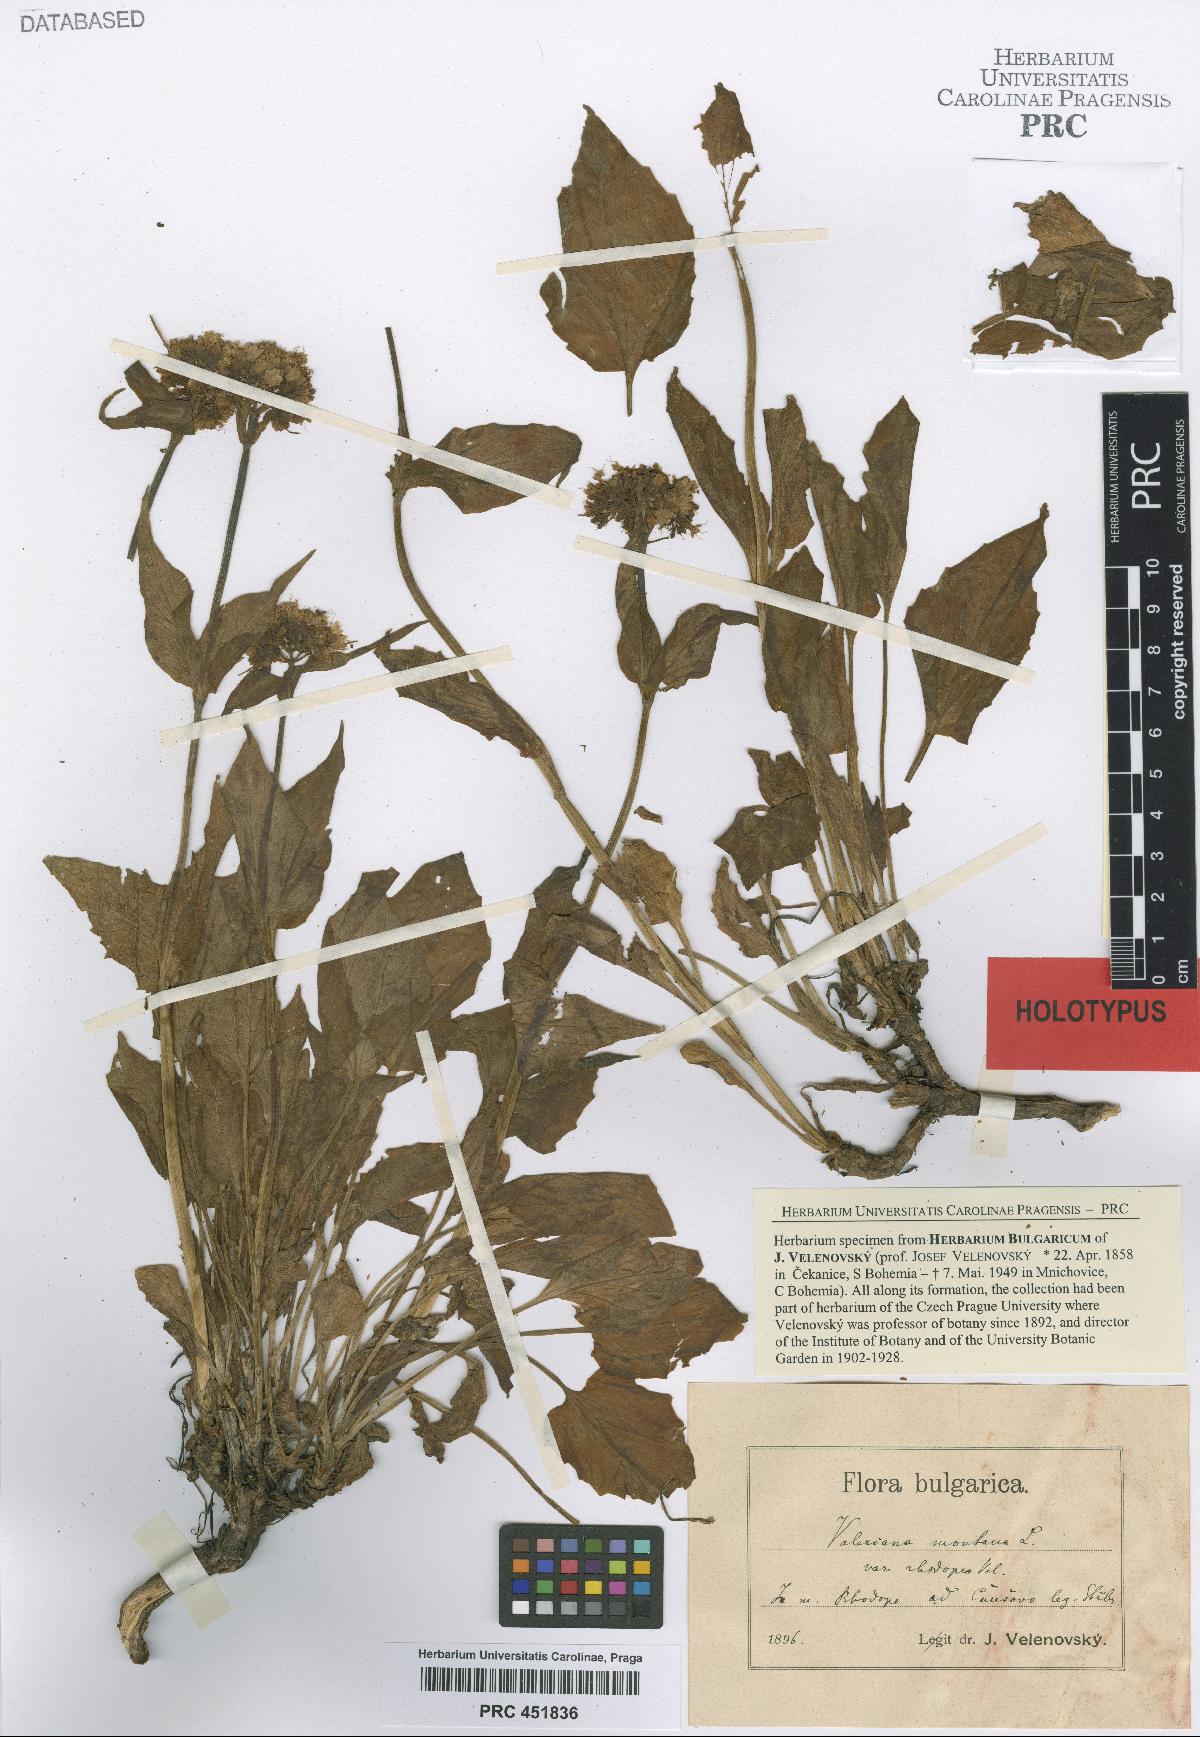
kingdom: Plantae
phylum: Tracheophyta
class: Magnoliopsida
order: Dipsacales
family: Caprifoliaceae
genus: Valeriana
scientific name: Valeriana montana
